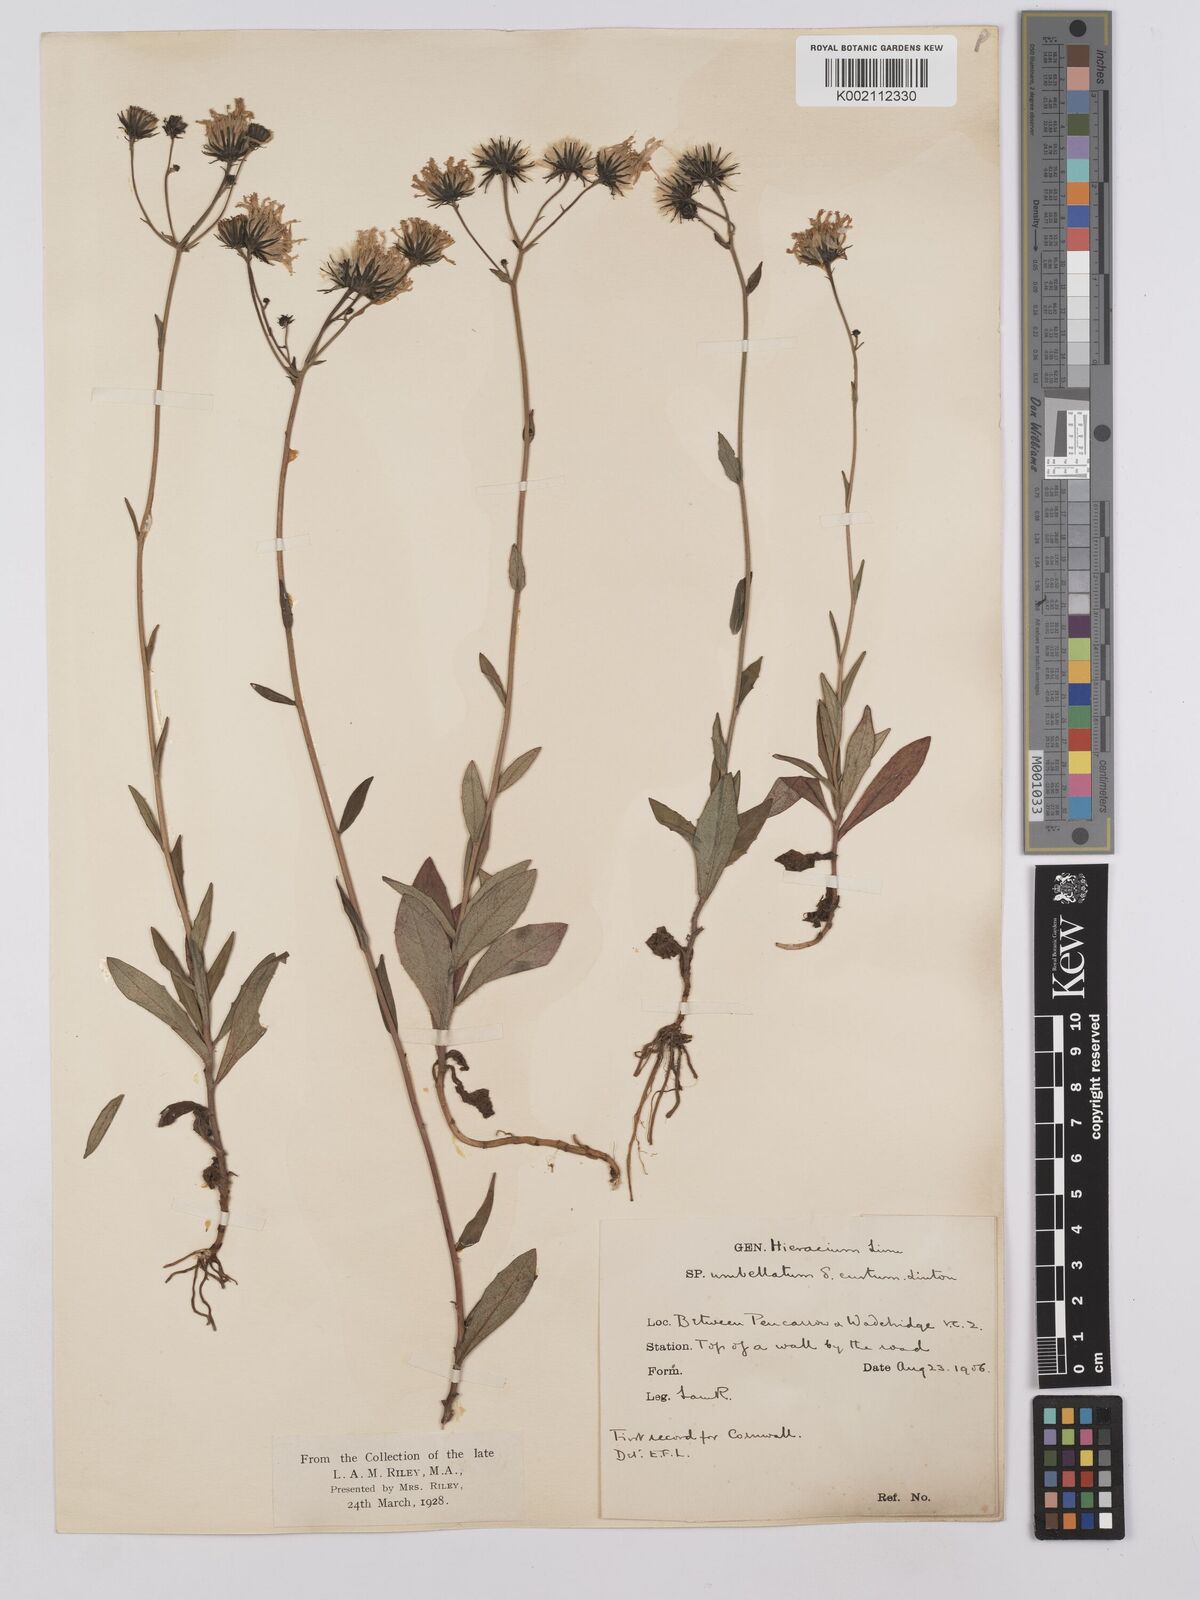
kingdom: Plantae
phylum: Tracheophyta
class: Magnoliopsida
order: Asterales
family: Asteraceae
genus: Hieracium
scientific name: Hieracium umbellatum
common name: Northern hawkweed
